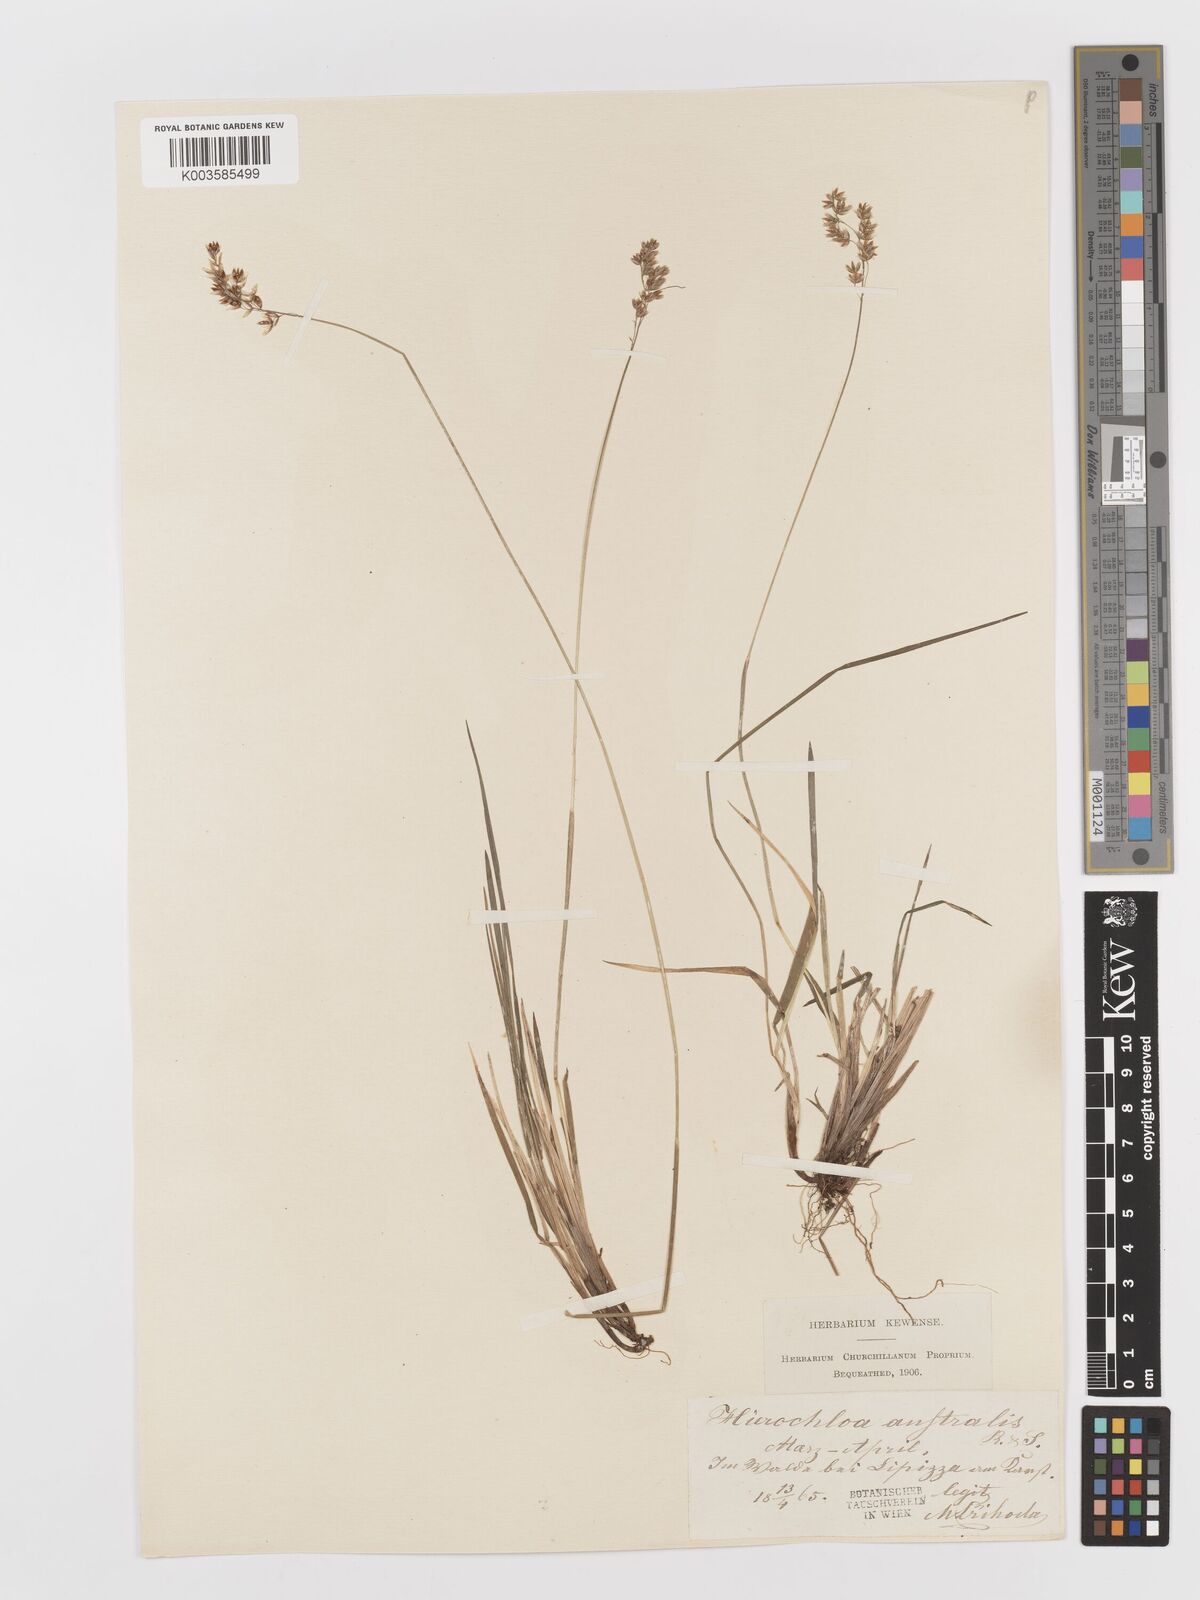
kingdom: Plantae
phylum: Tracheophyta
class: Liliopsida
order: Poales
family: Poaceae
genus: Anthoxanthum
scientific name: Anthoxanthum australe
